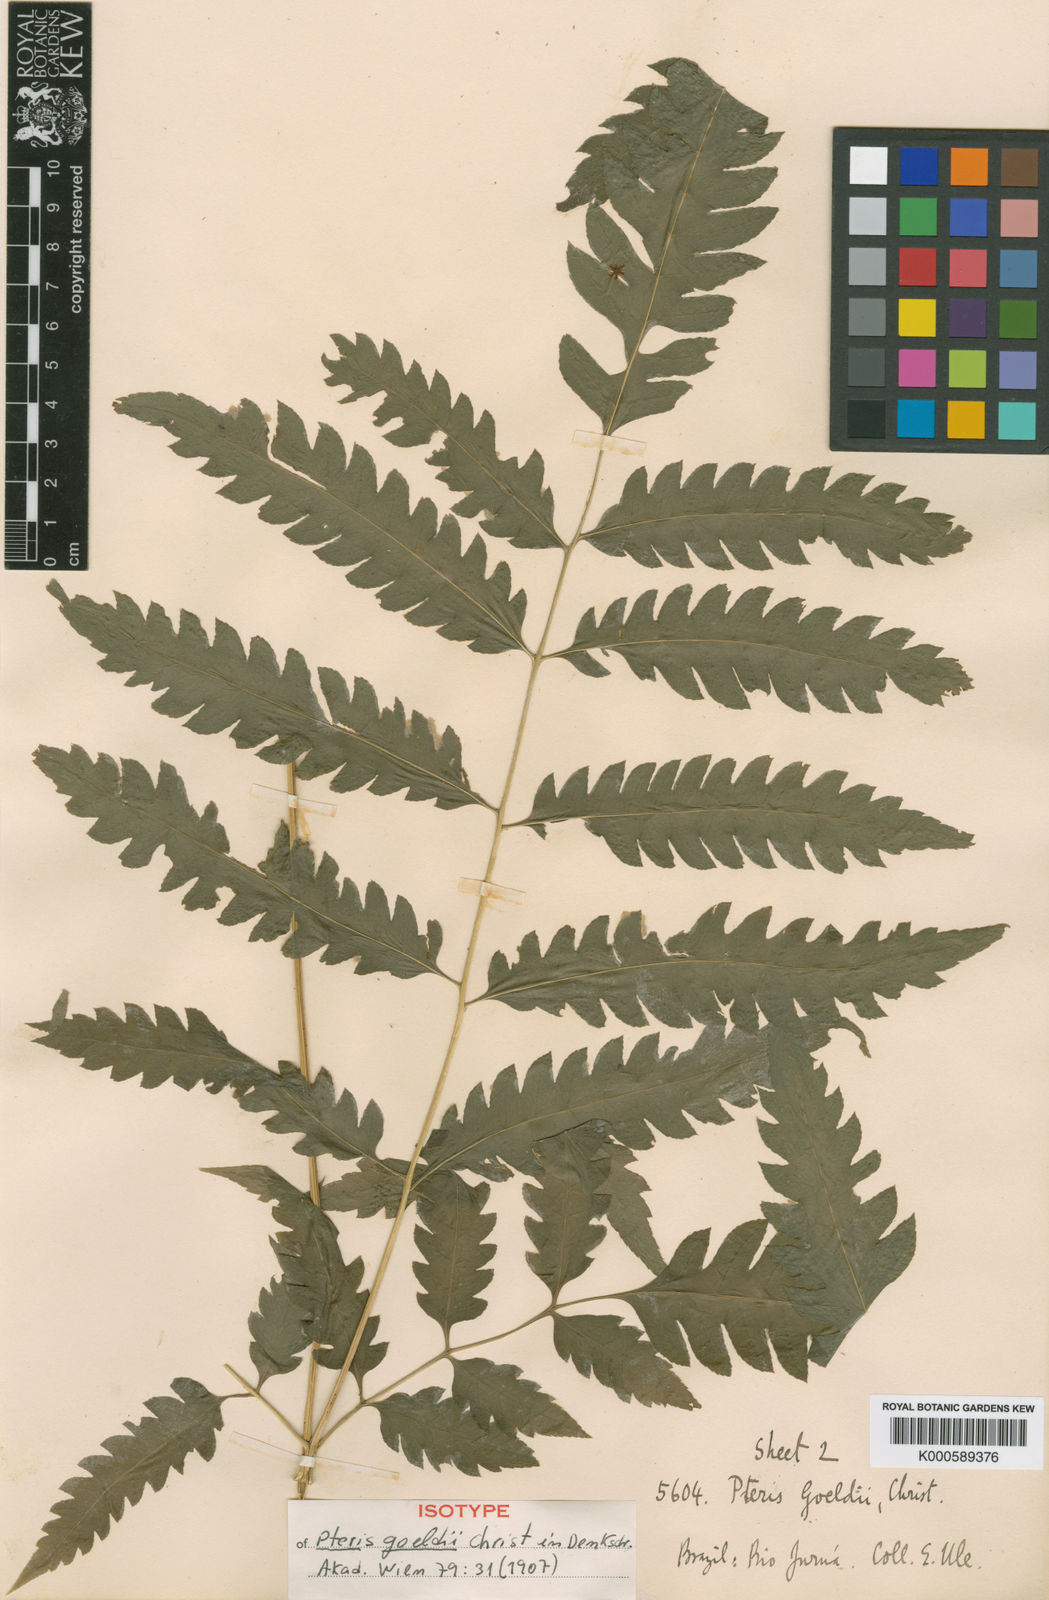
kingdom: Plantae
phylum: Tracheophyta
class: Polypodiopsida
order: Polypodiales
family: Pteridaceae
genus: Pteris
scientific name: Pteris
